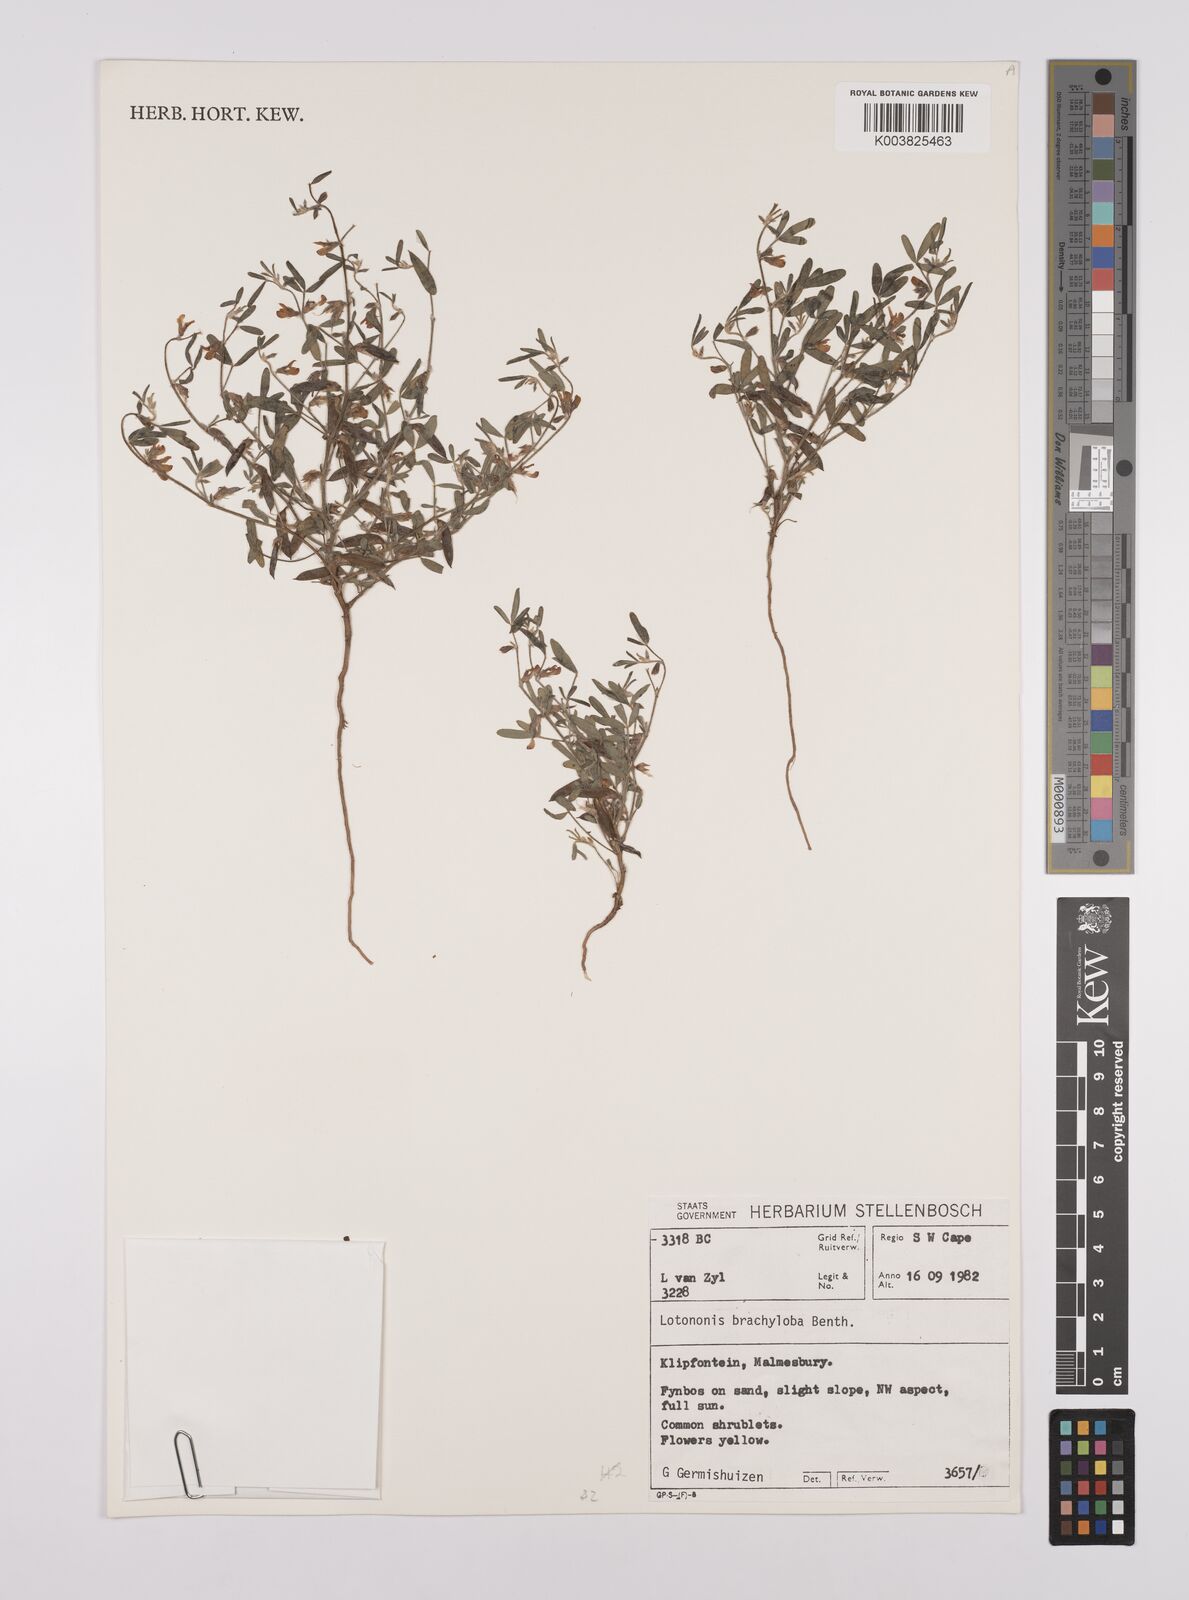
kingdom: Plantae
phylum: Tracheophyta
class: Magnoliopsida
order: Fabales
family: Fabaceae
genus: Lotononis
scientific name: Lotononis parviflora
